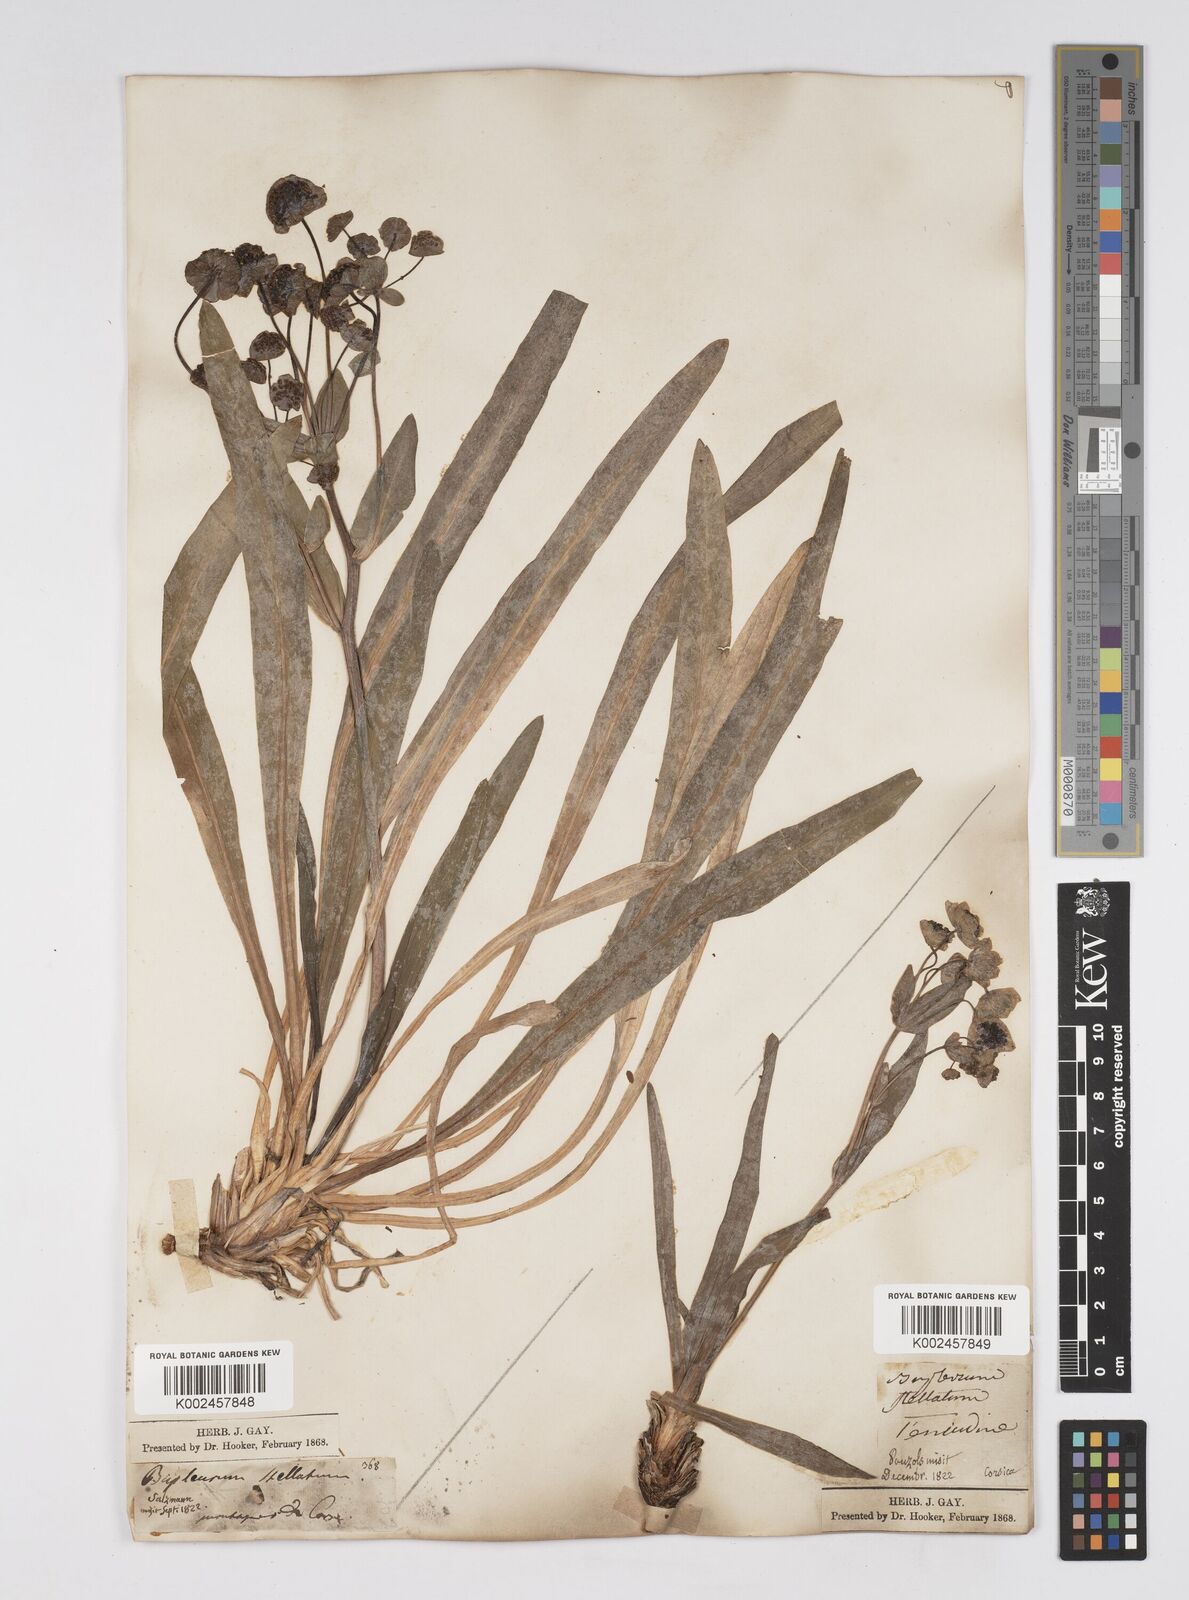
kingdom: Plantae
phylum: Tracheophyta
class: Magnoliopsida
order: Apiales
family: Apiaceae
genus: Bupleurum
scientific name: Bupleurum stellatum
